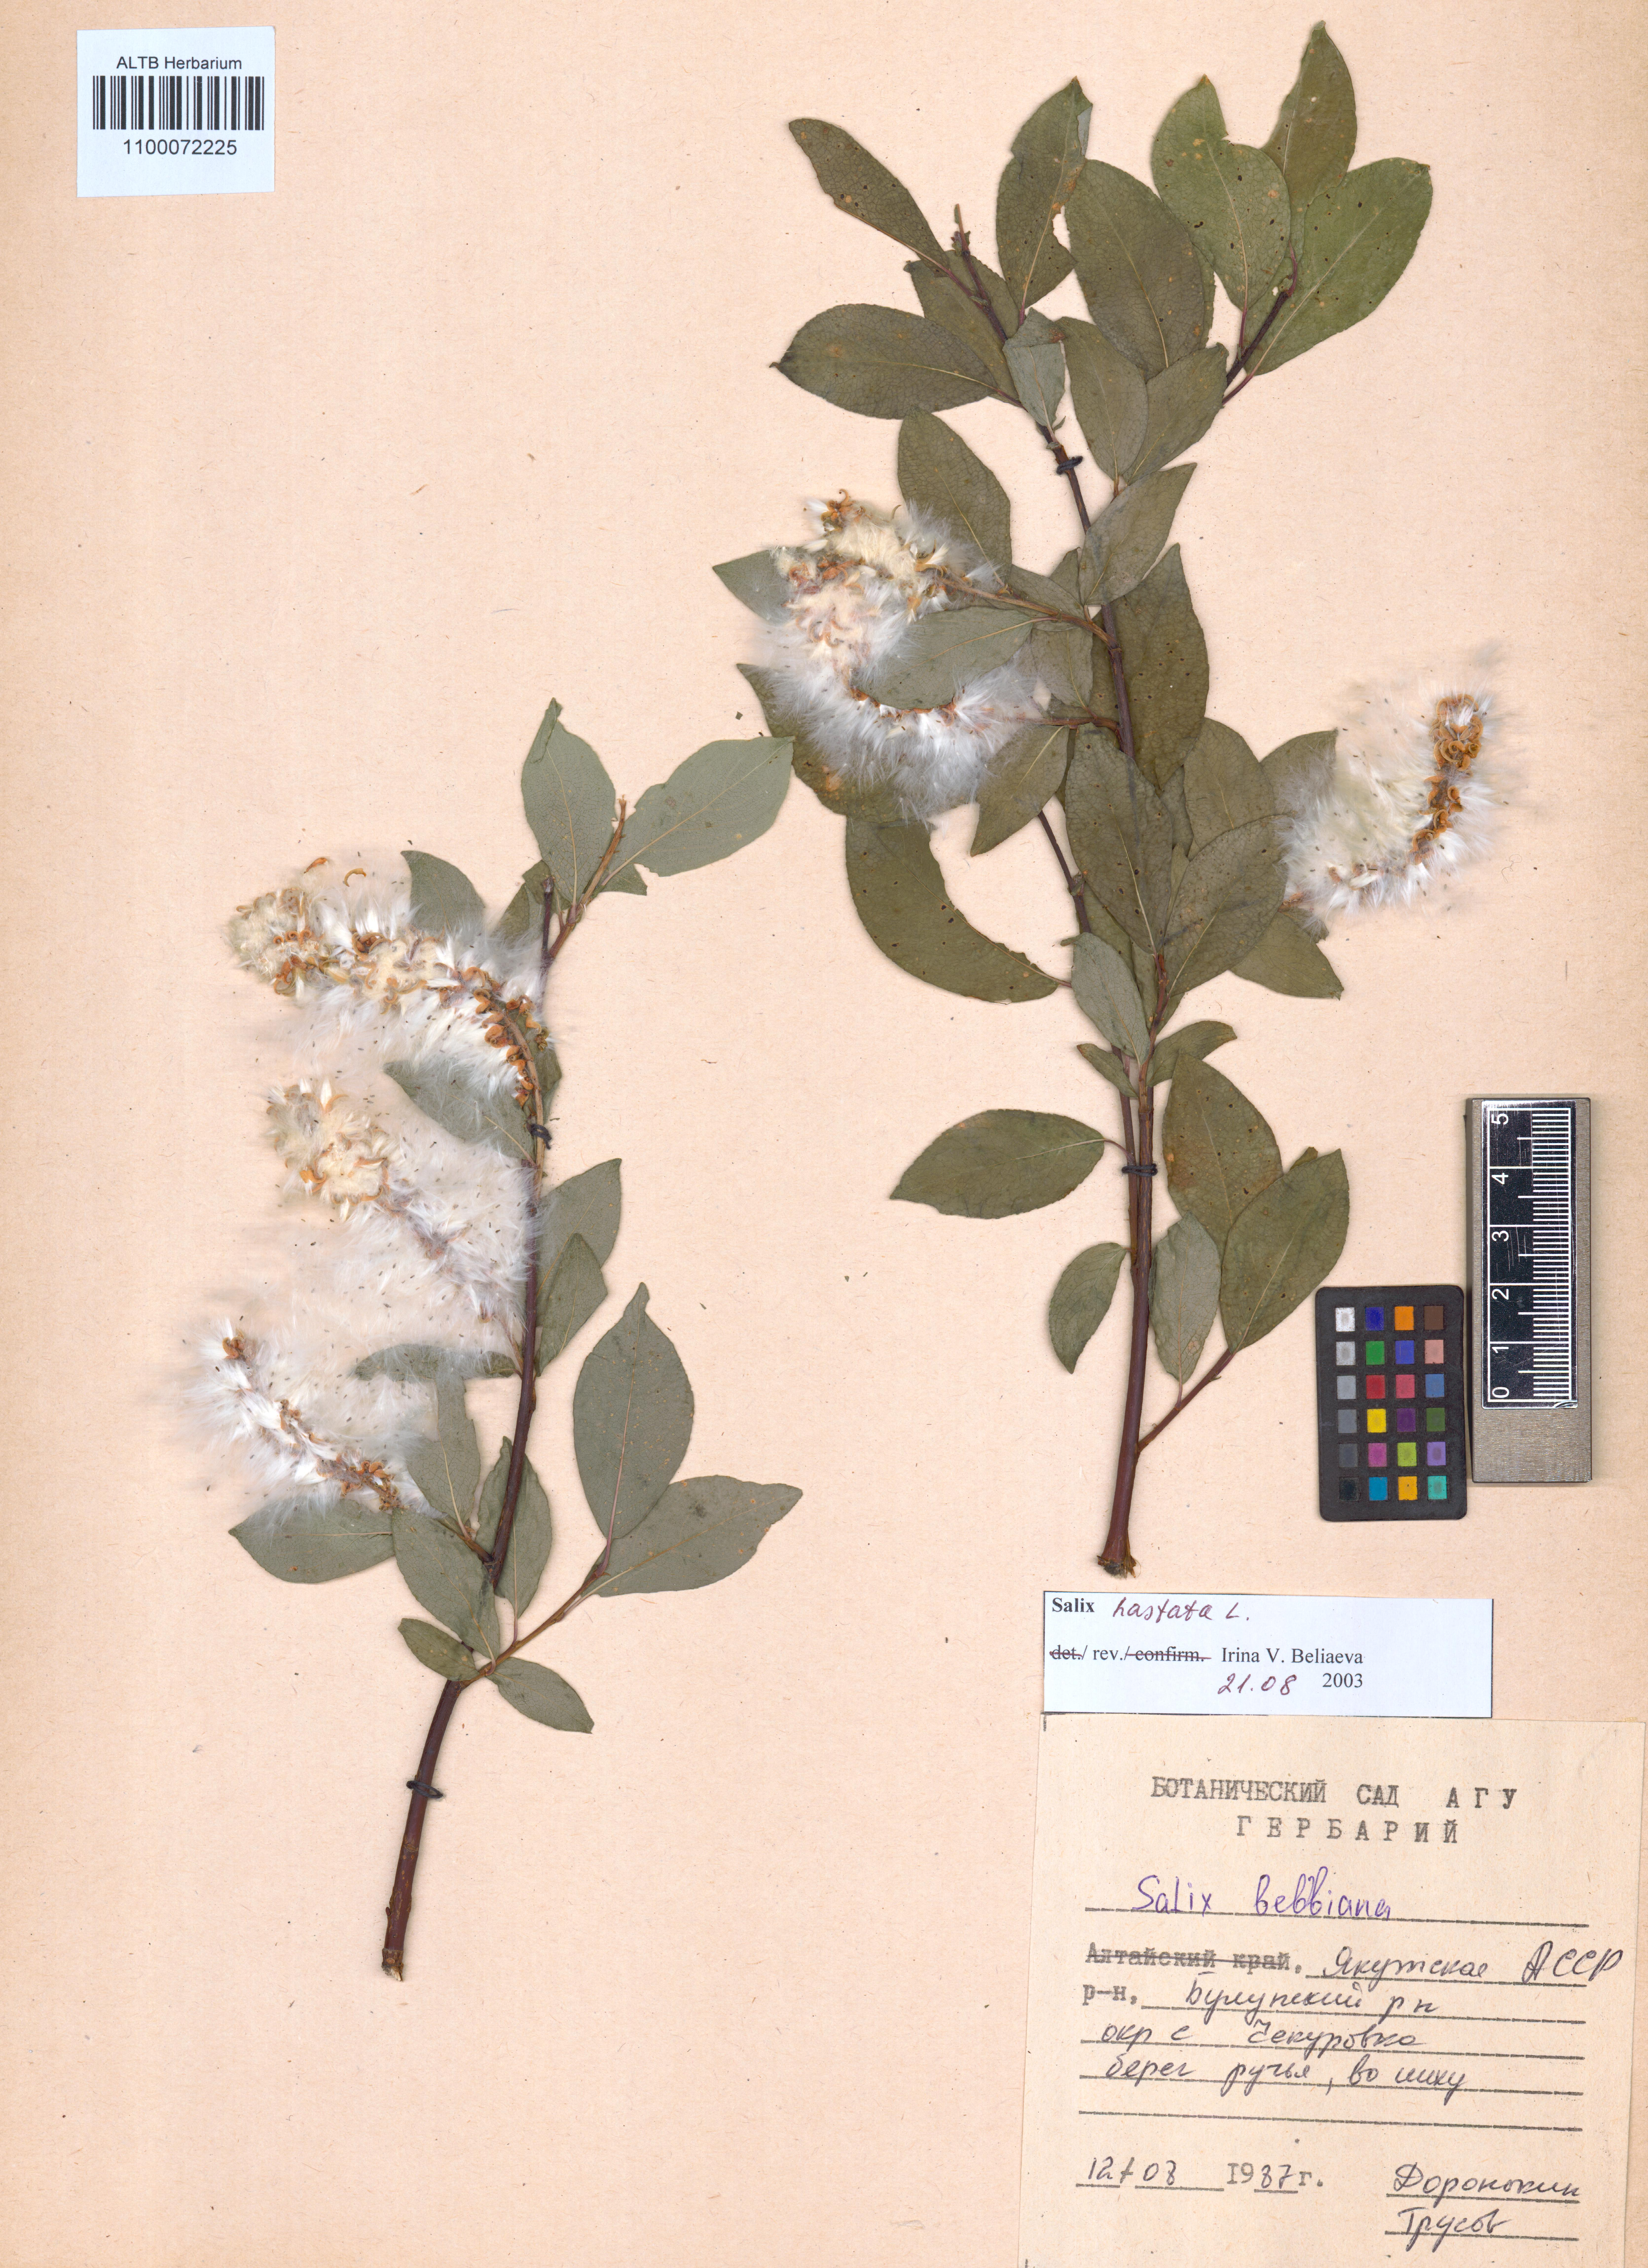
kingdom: Plantae
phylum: Tracheophyta
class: Magnoliopsida
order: Malpighiales
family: Salicaceae
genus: Salix
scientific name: Salix hastata
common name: Halberd willow
